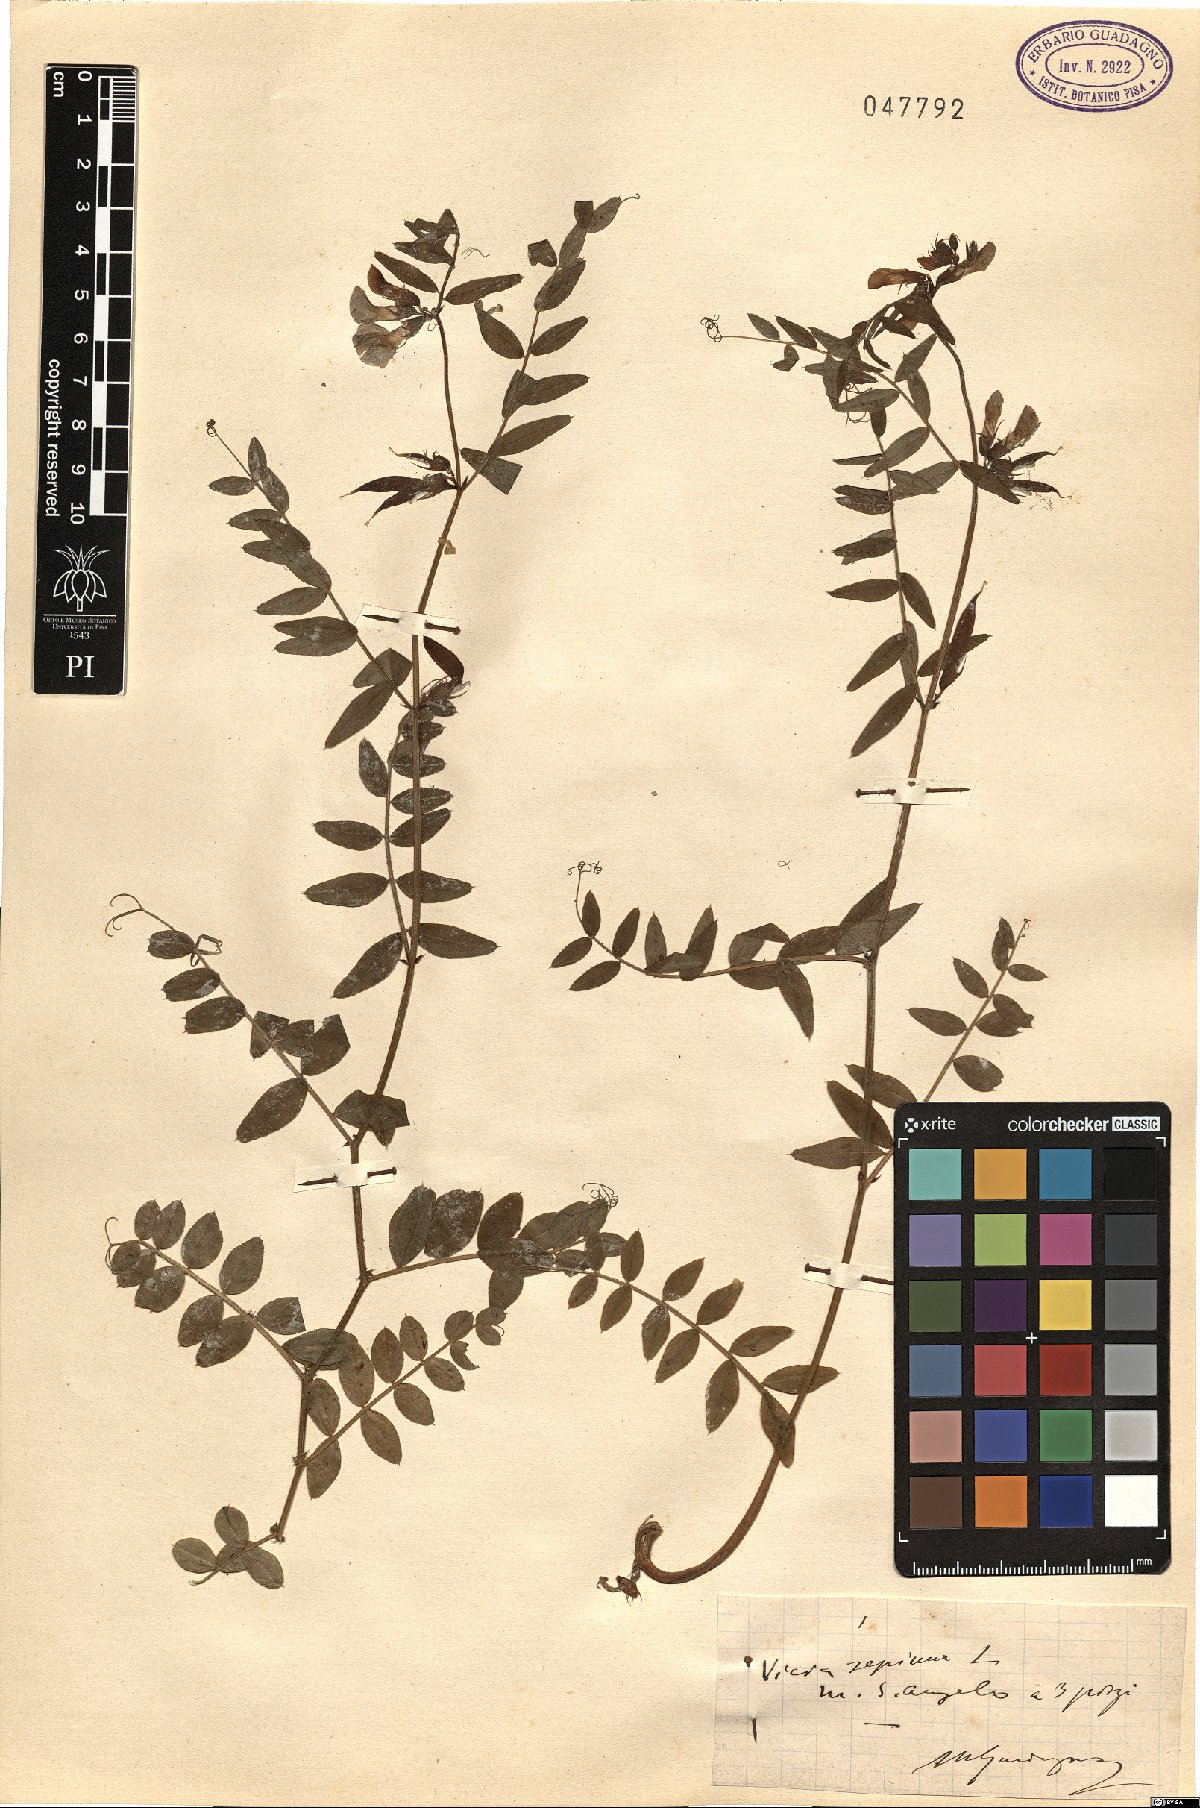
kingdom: Plantae
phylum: Tracheophyta
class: Magnoliopsida
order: Fabales
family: Fabaceae
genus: Vicia
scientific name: Vicia sepium
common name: Bush vetch
